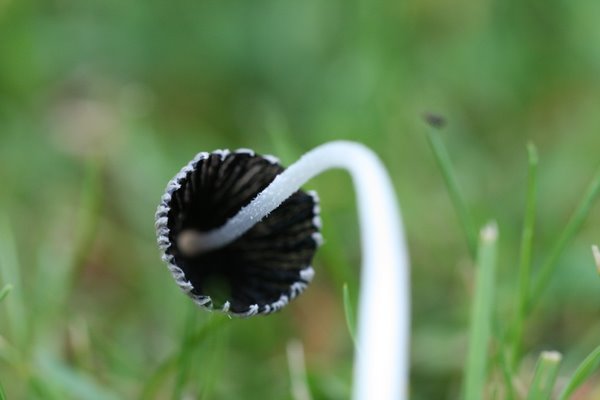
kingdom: Fungi
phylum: Basidiomycota
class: Agaricomycetes
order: Agaricales
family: Psathyrellaceae
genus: Coprinopsis
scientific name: Coprinopsis lagopus
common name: dunstokket blækhat
